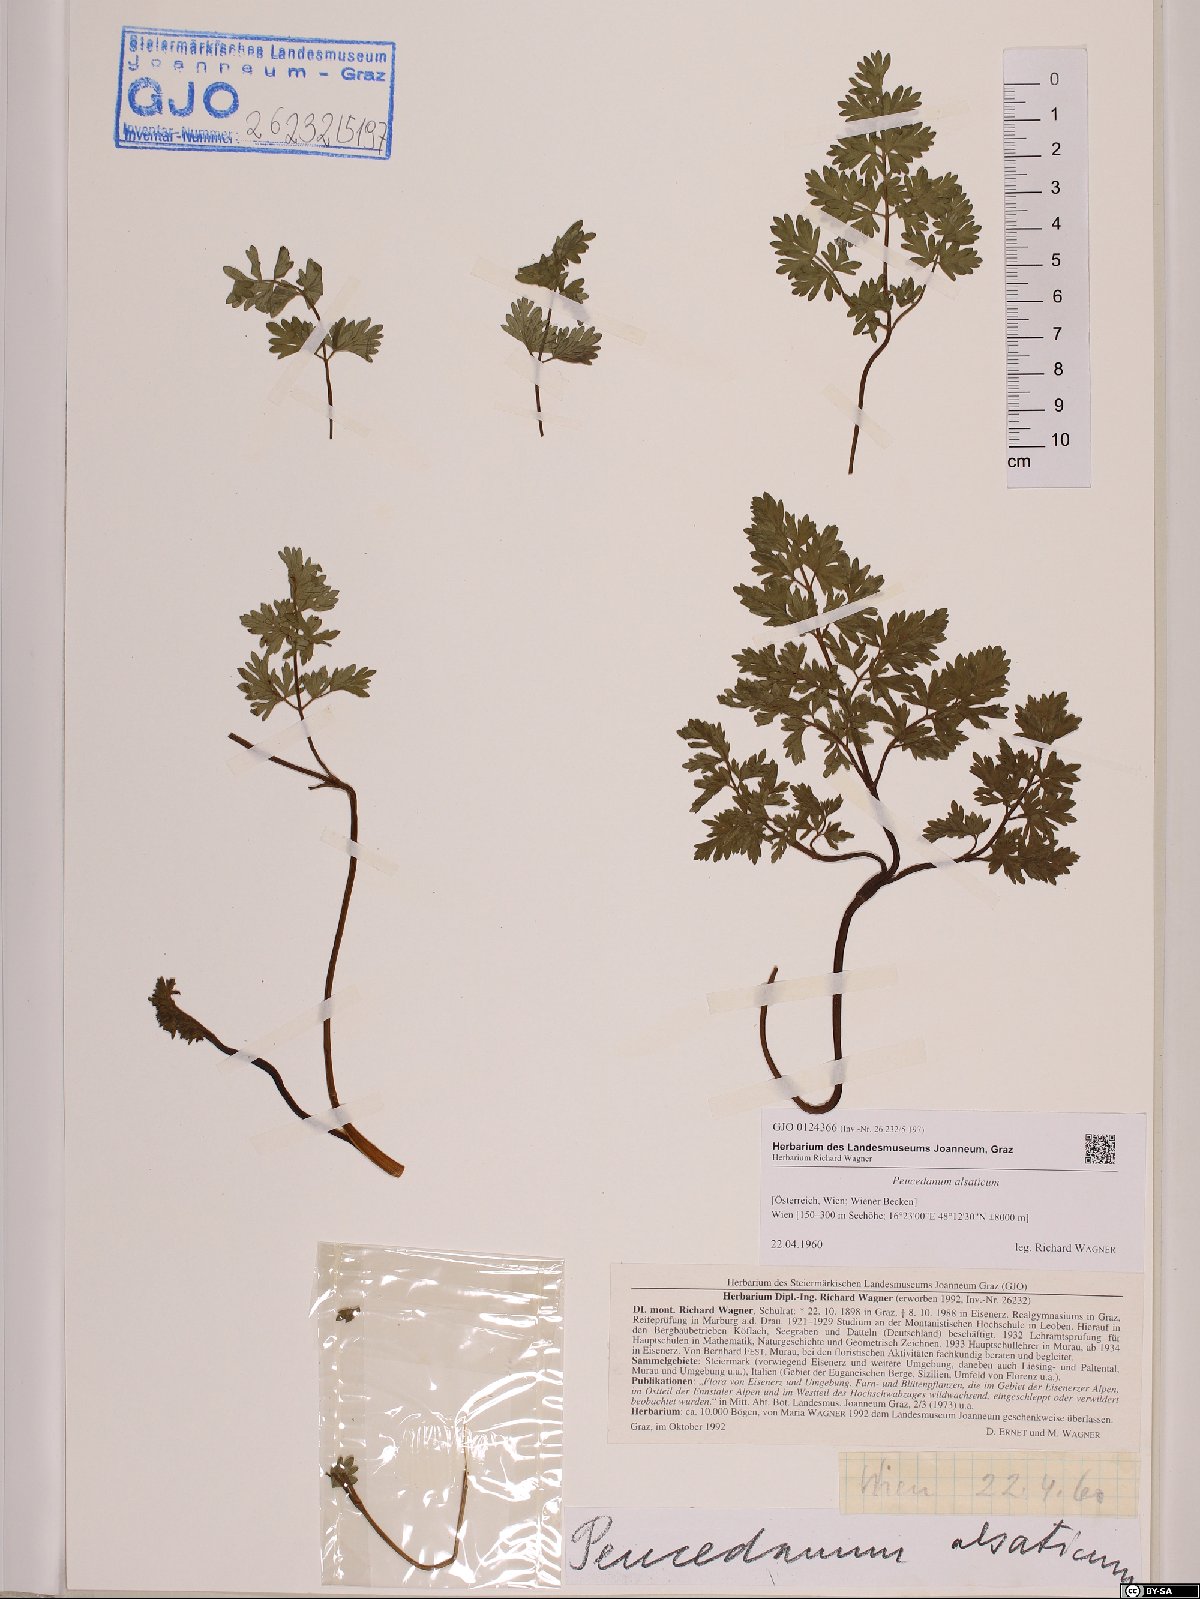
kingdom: Plantae
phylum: Tracheophyta
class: Magnoliopsida
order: Apiales
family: Apiaceae
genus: Xanthoselinum
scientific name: Xanthoselinum alsaticum
